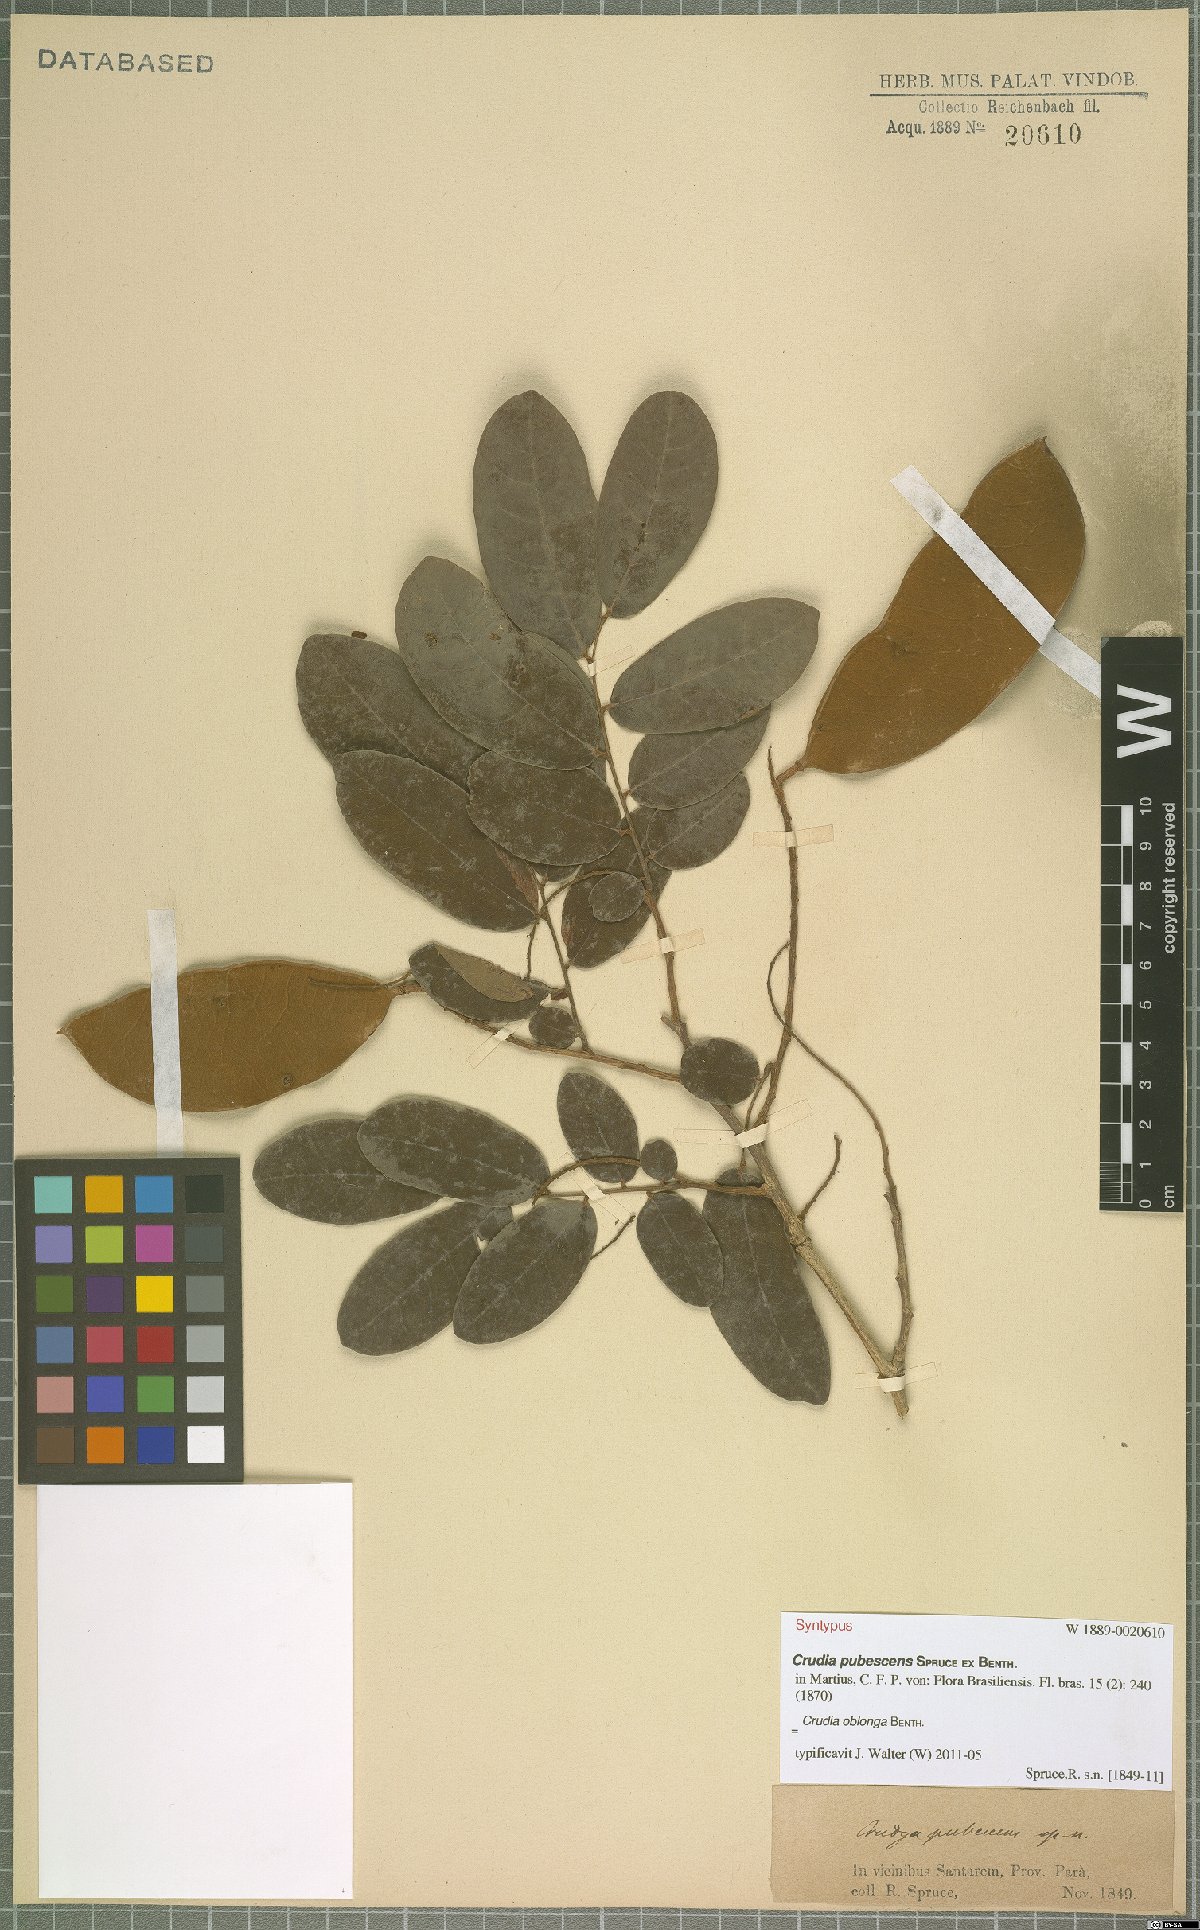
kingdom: Plantae
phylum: Tracheophyta
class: Magnoliopsida
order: Fabales
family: Fabaceae
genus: Crudia
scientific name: Crudia oblonga
